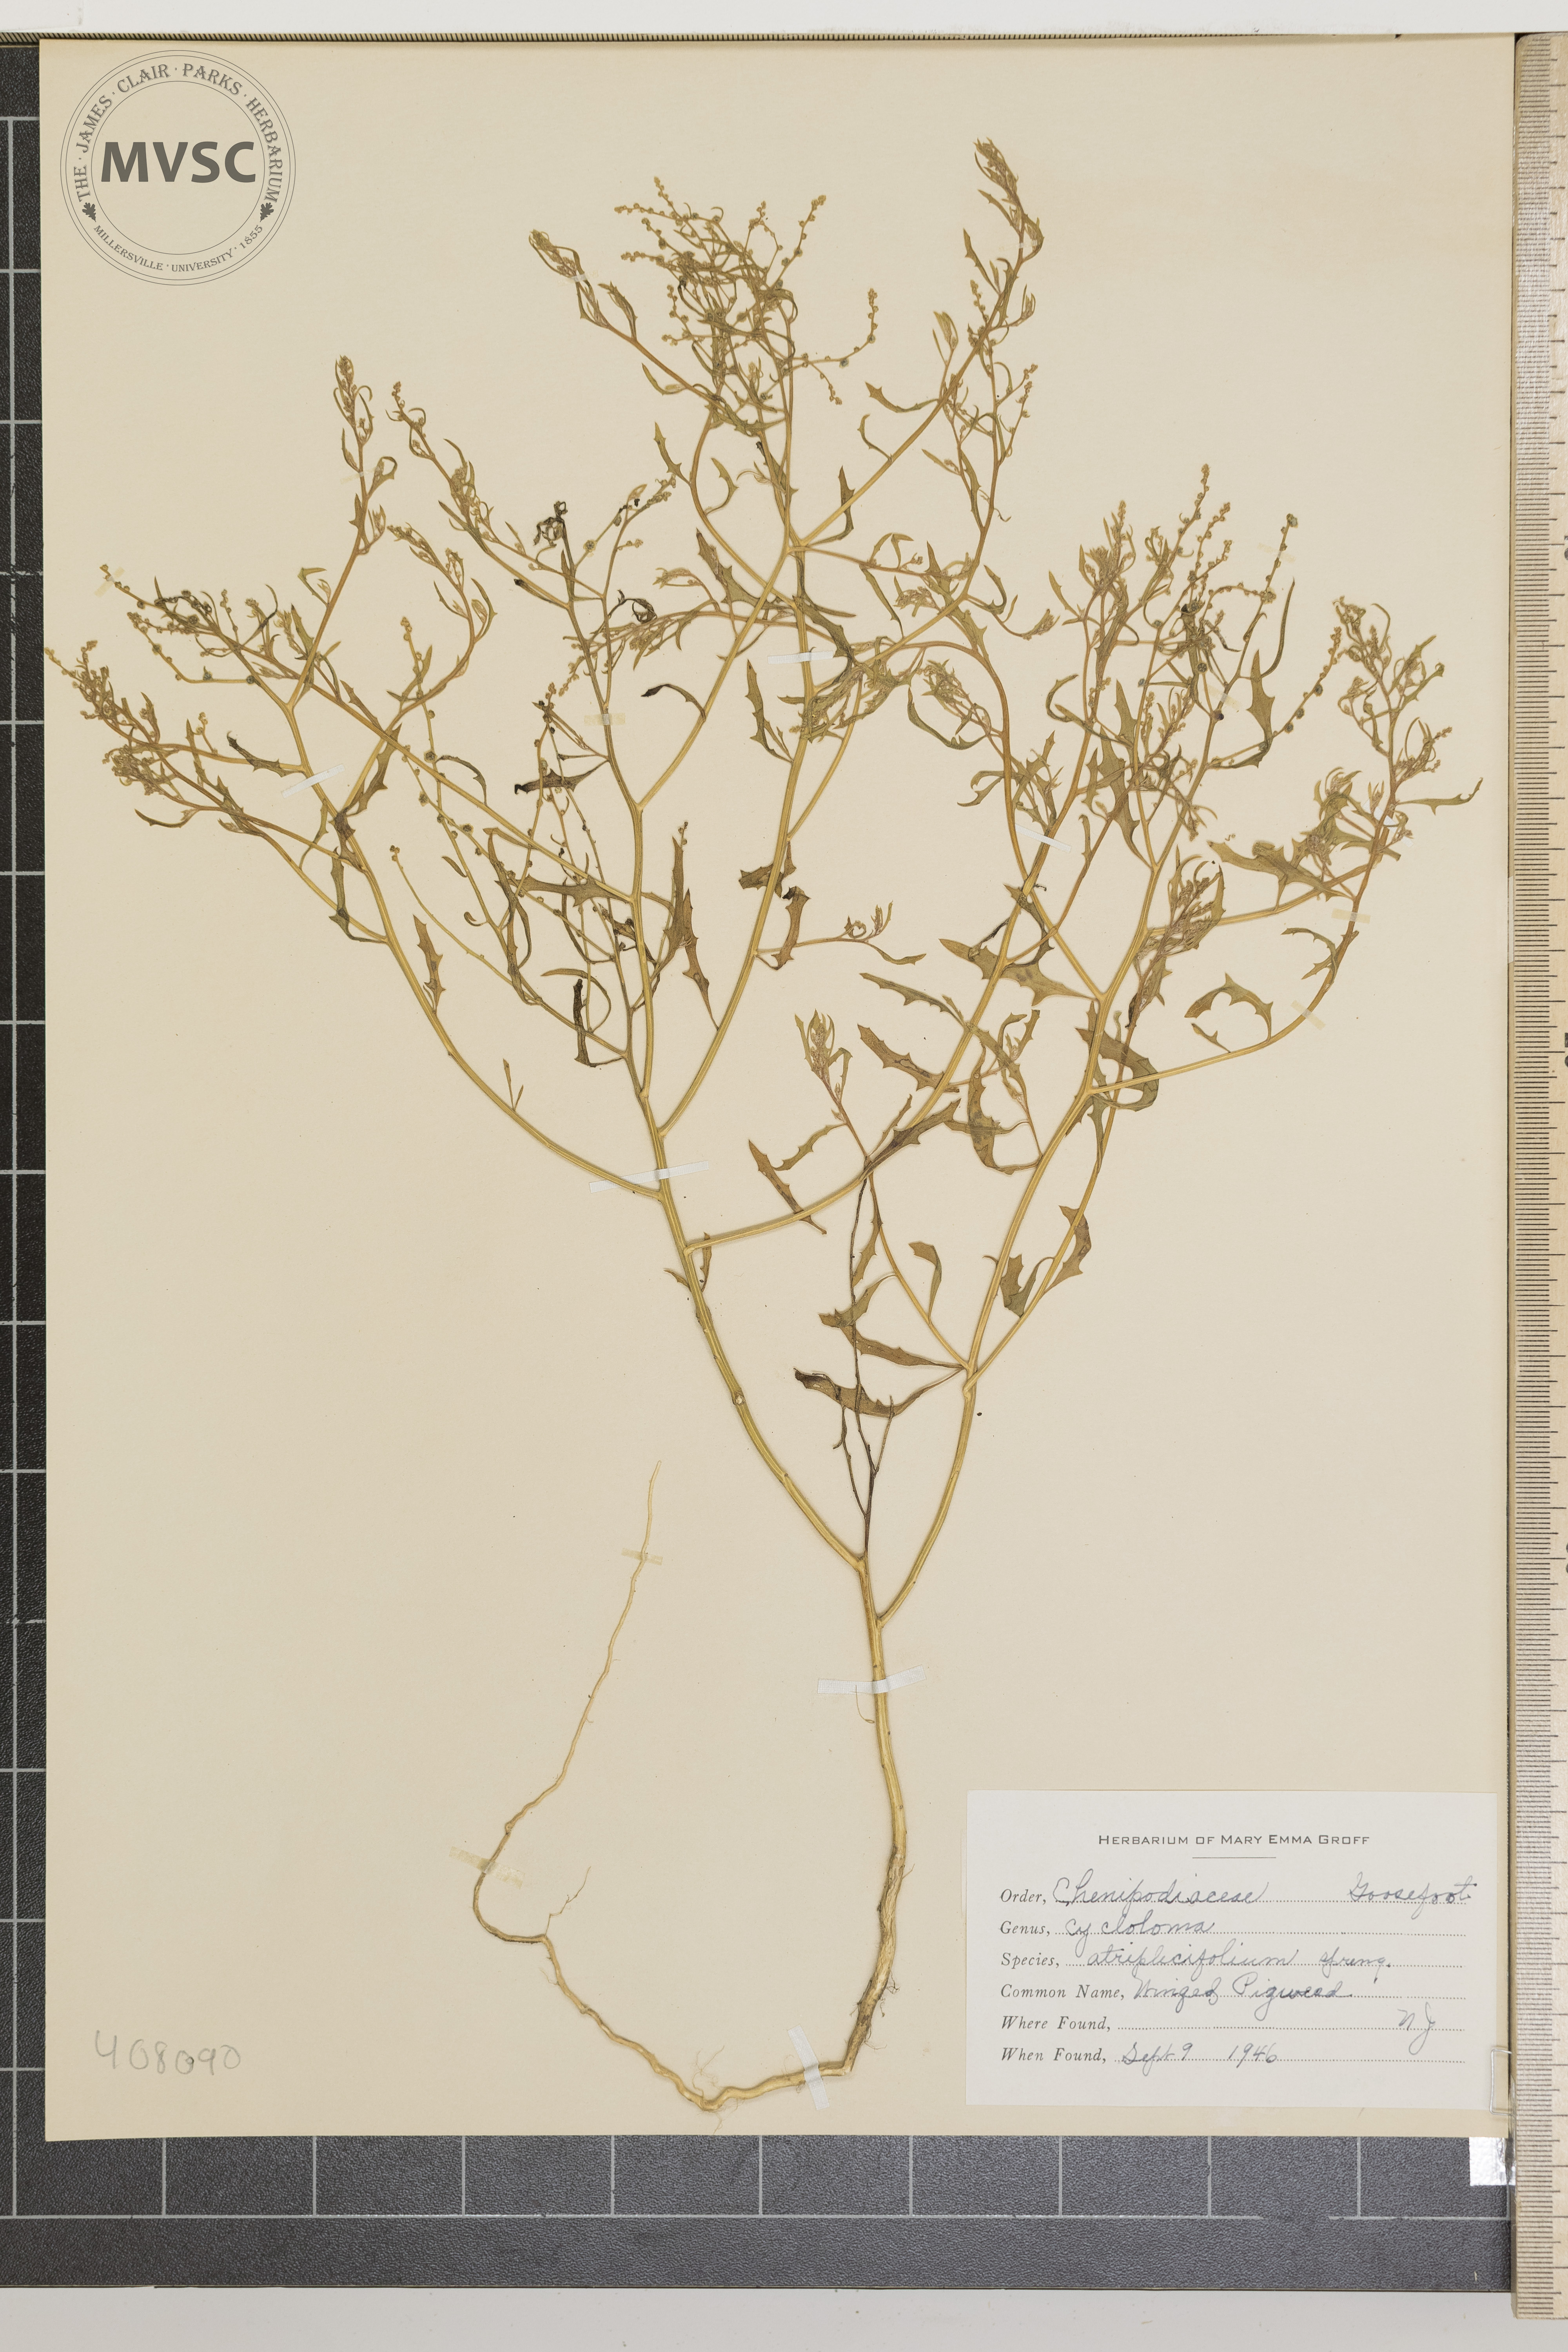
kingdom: Plantae
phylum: Tracheophyta
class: Magnoliopsida
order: Caryophyllales
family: Amaranthaceae
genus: Dysphania
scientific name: Dysphania atriplicifolia
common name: Winged Pigweed
